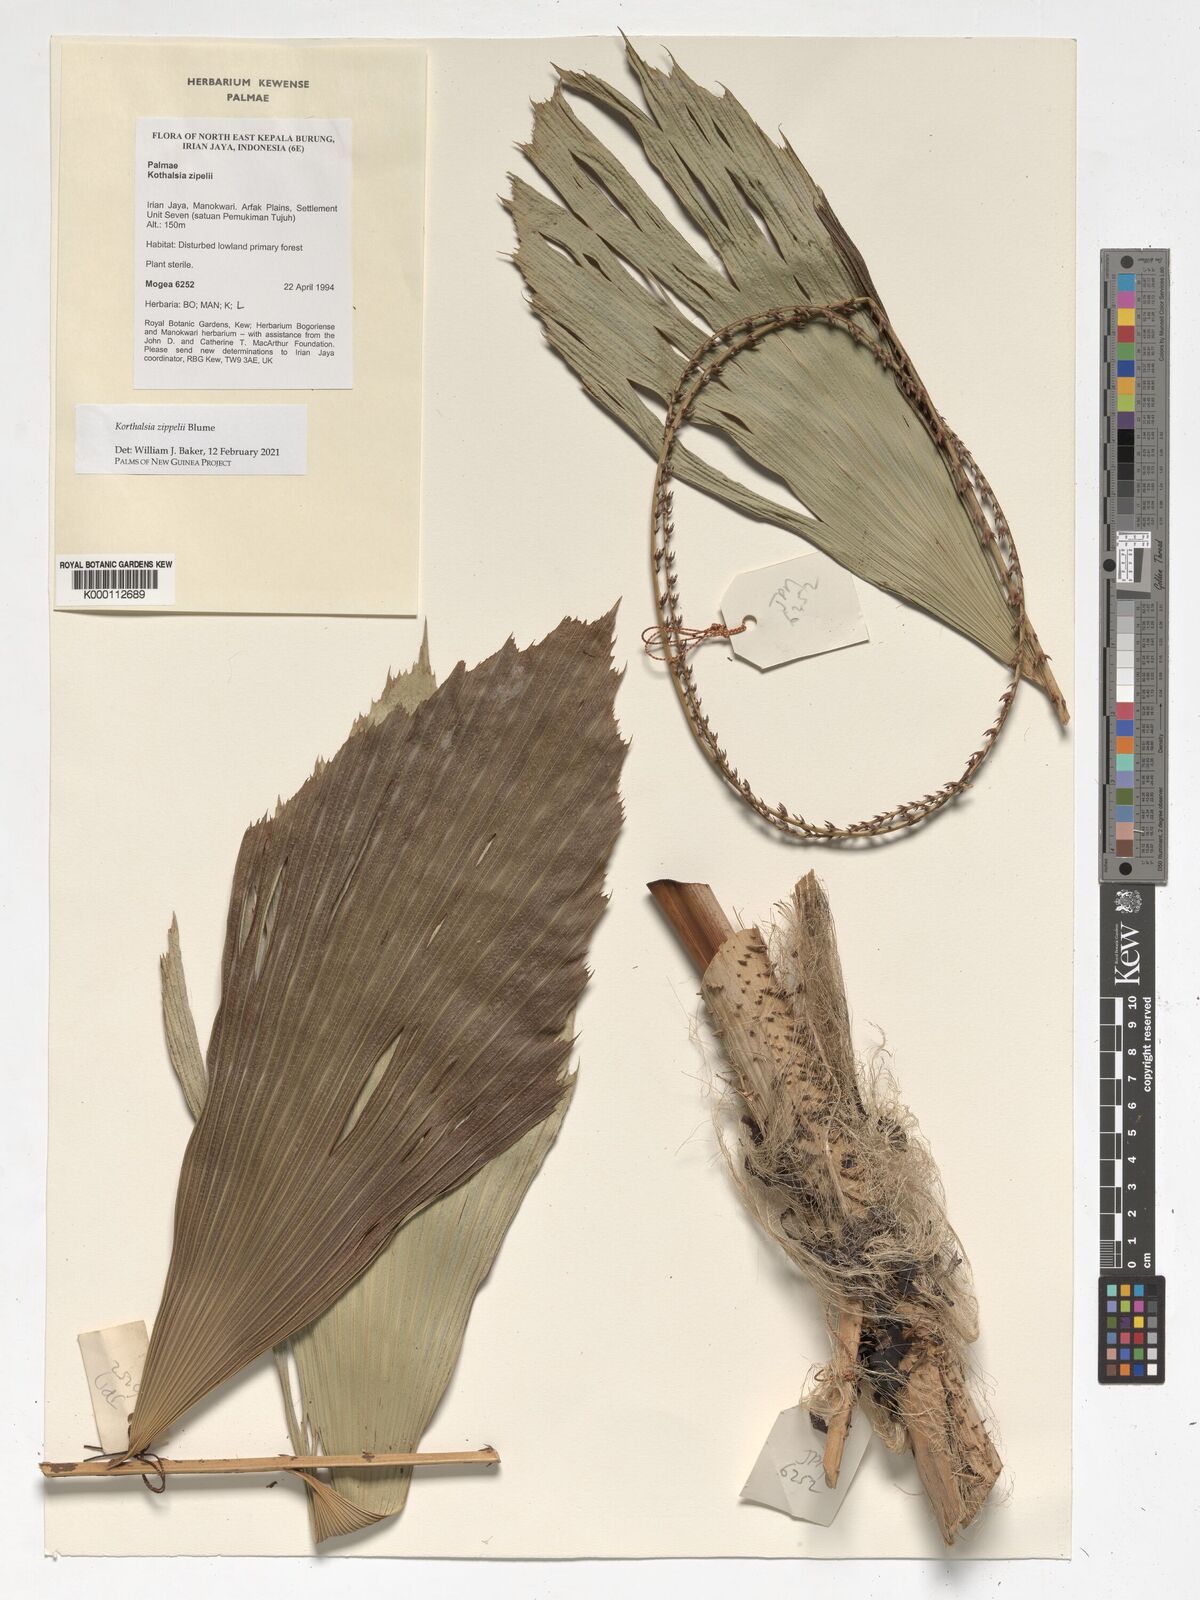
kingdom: Plantae
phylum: Tracheophyta
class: Liliopsida
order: Arecales
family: Arecaceae
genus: Korthalsia
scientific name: Korthalsia zippelii
